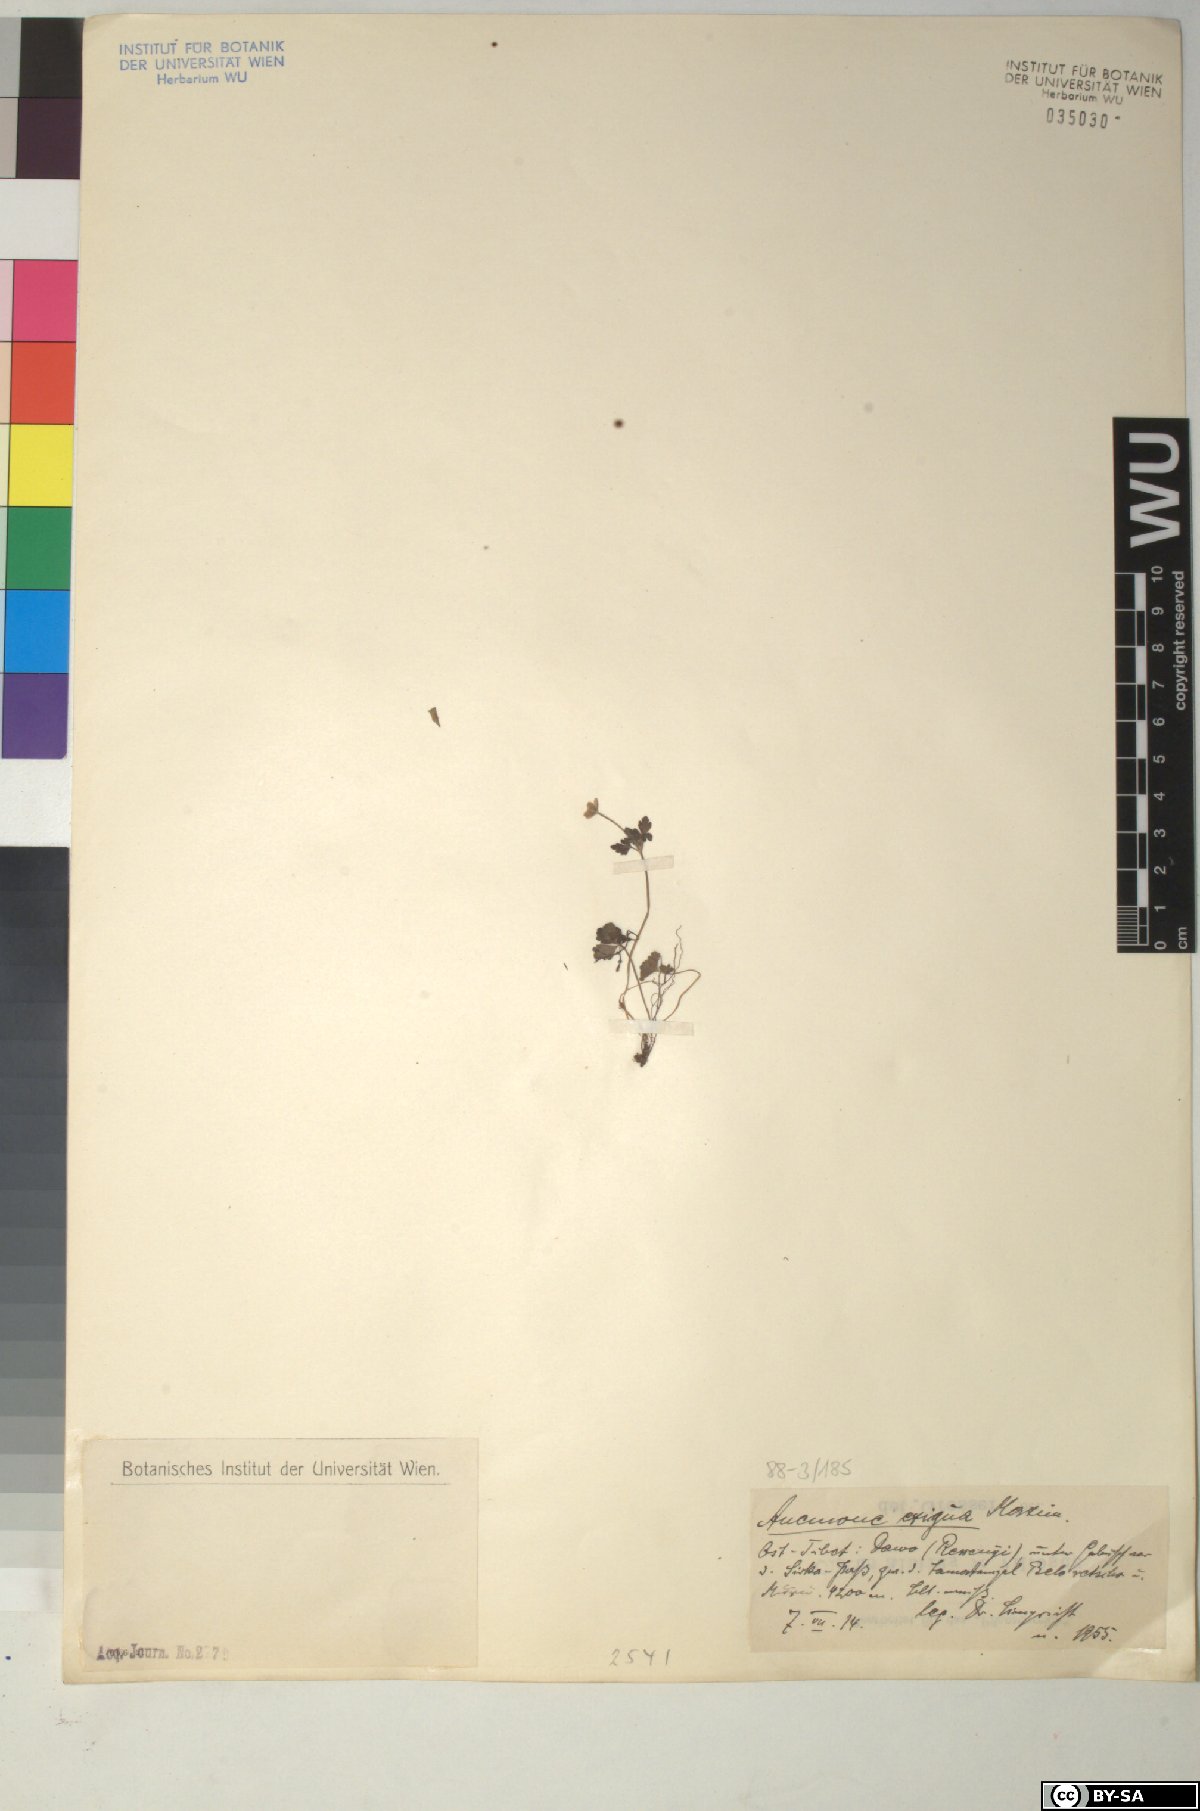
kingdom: Plantae
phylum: Tracheophyta
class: Magnoliopsida
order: Ranunculales
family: Ranunculaceae
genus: Anemone
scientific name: Anemone exigua
